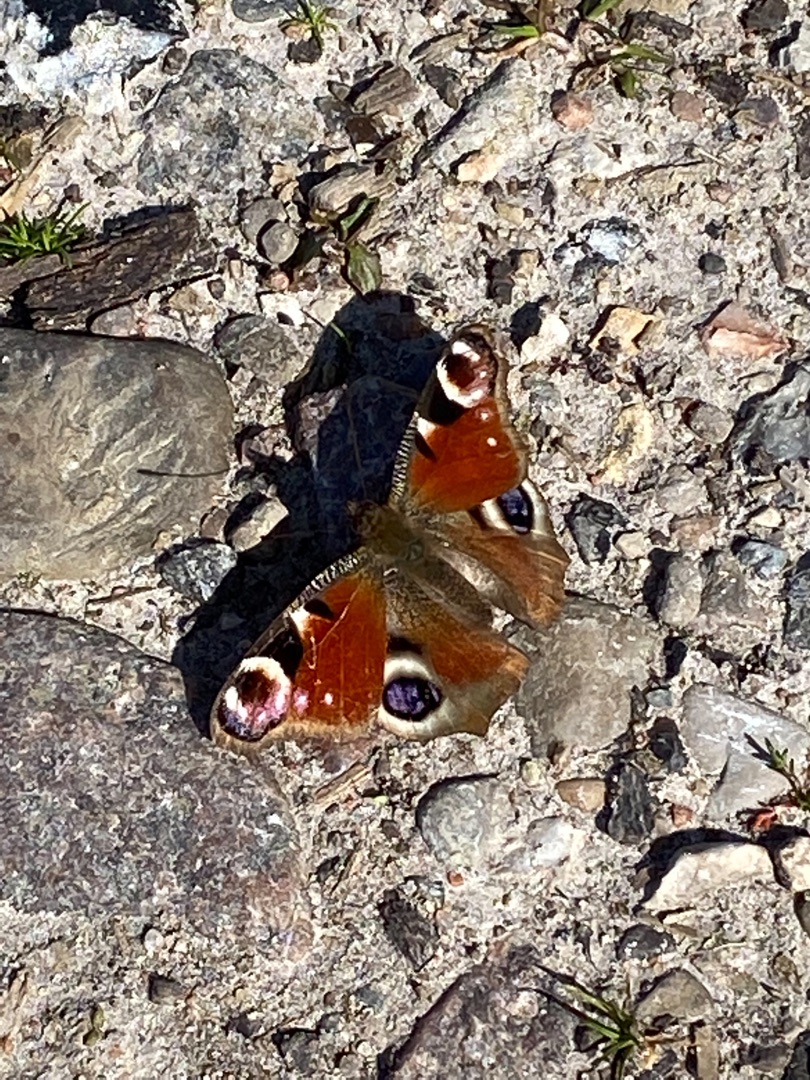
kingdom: Animalia
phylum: Arthropoda
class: Insecta
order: Lepidoptera
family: Nymphalidae
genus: Aglais
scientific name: Aglais io
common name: Dagpåfugleøje
